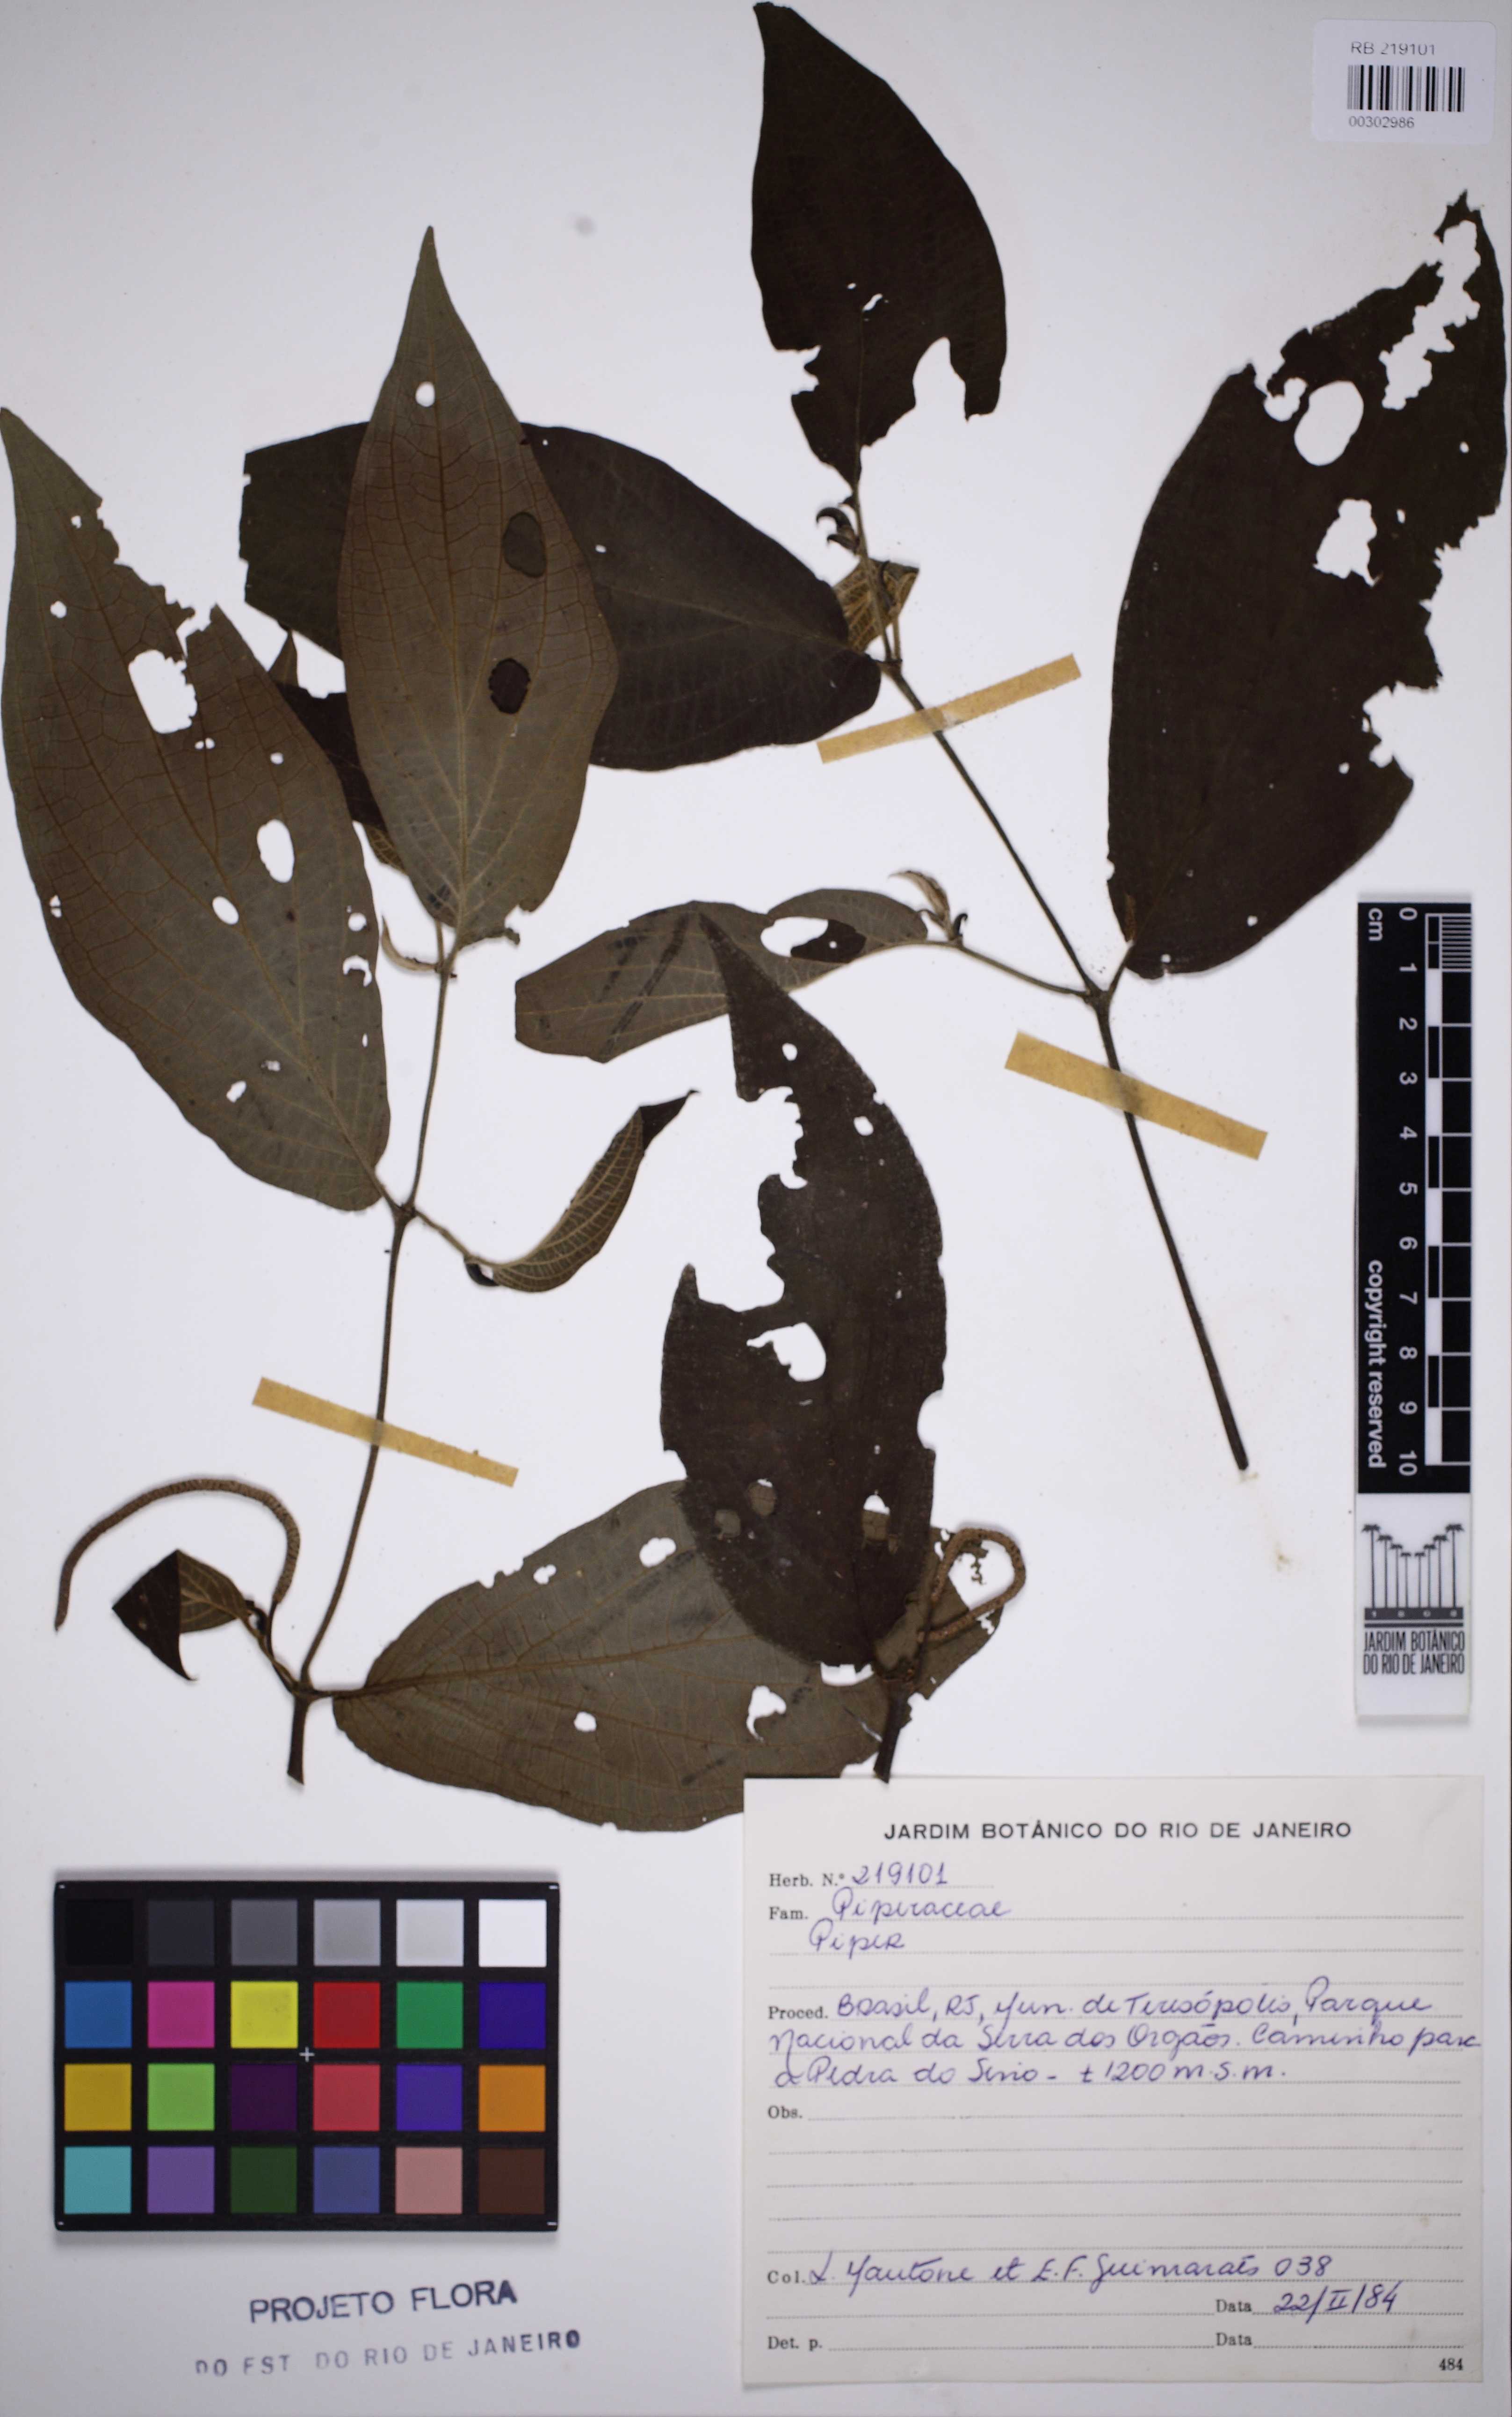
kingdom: Plantae
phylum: Tracheophyta
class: Magnoliopsida
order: Piperales
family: Piperaceae
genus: Piper
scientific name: Piper
